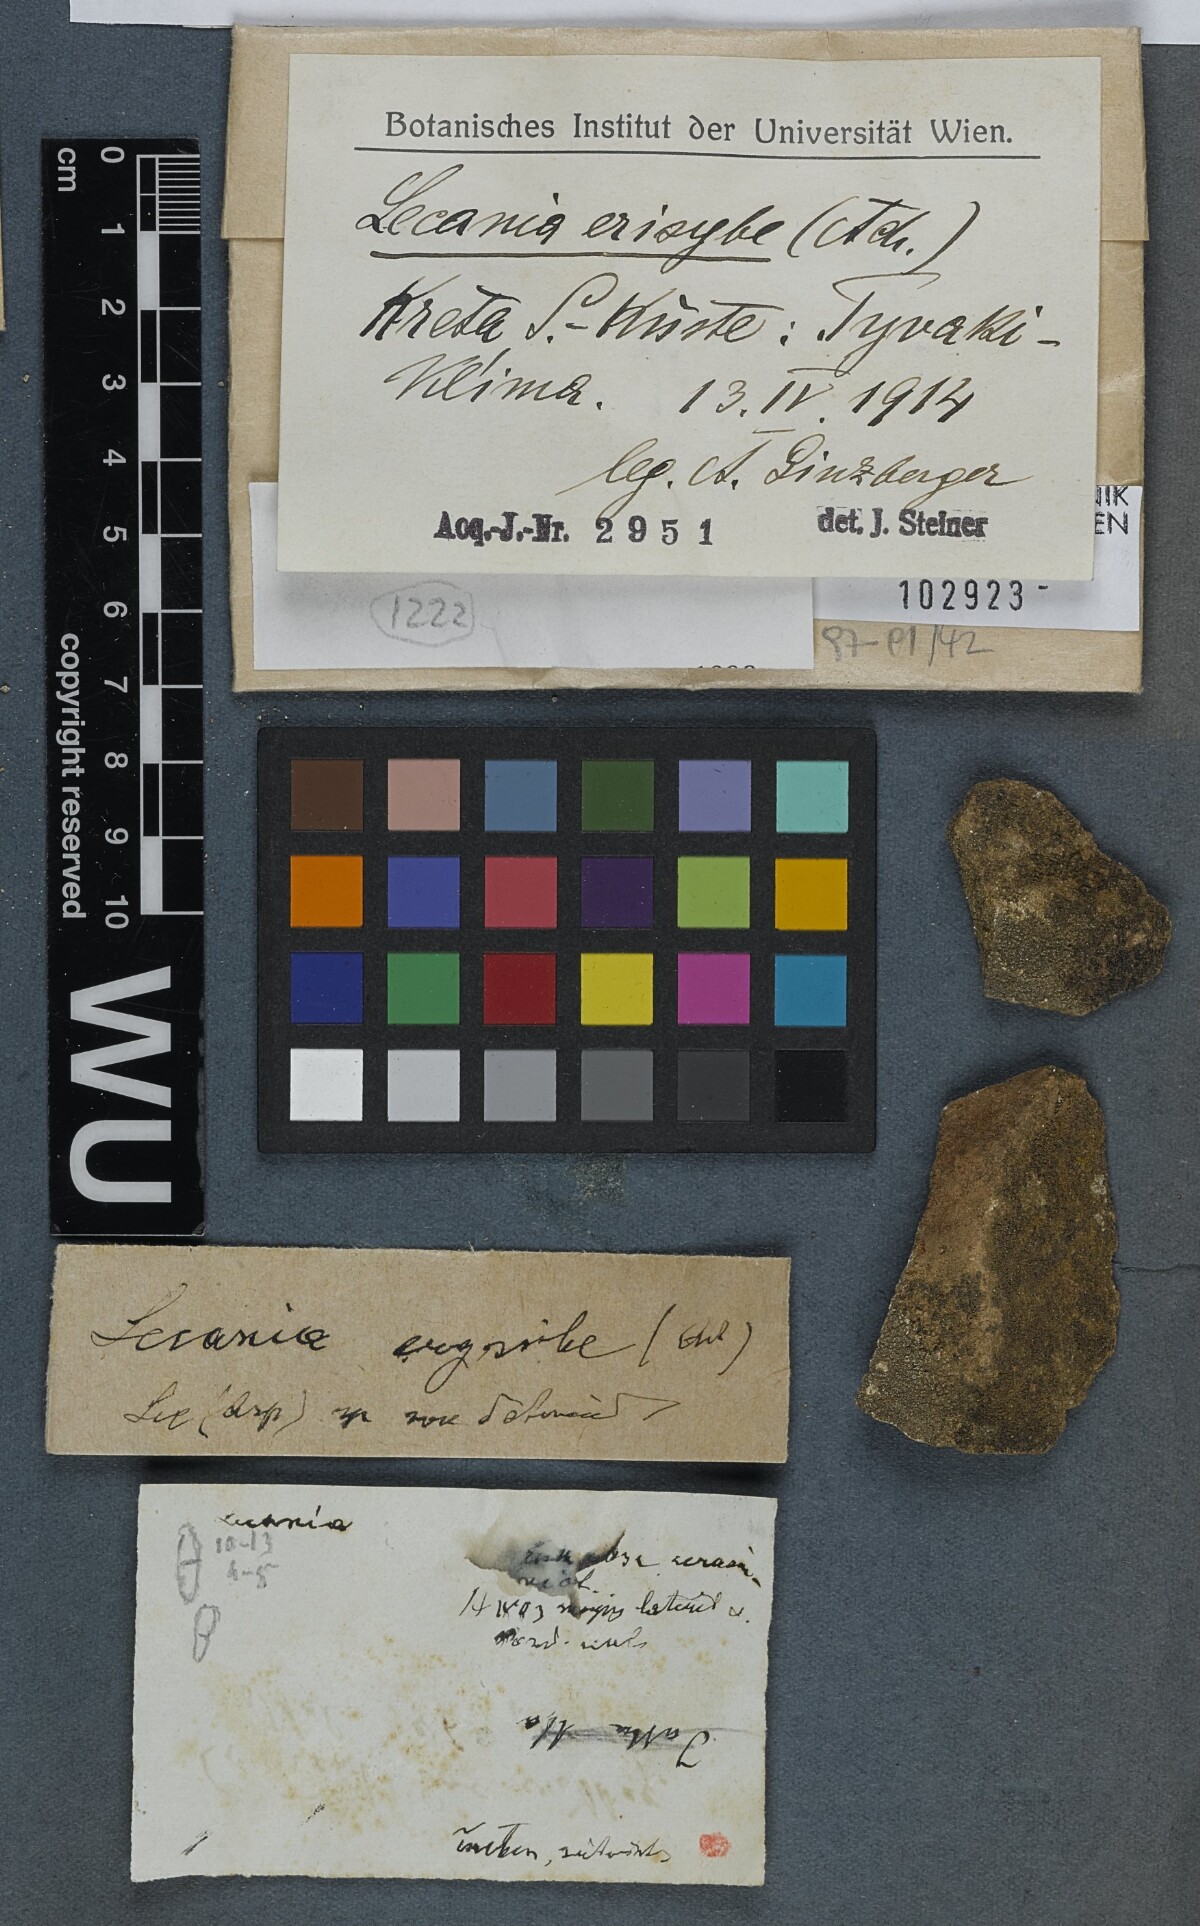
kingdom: Fungi
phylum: Ascomycota
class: Lecanoromycetes
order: Lecanorales
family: Ramalinaceae
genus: Lecania
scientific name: Lecania erysibe
